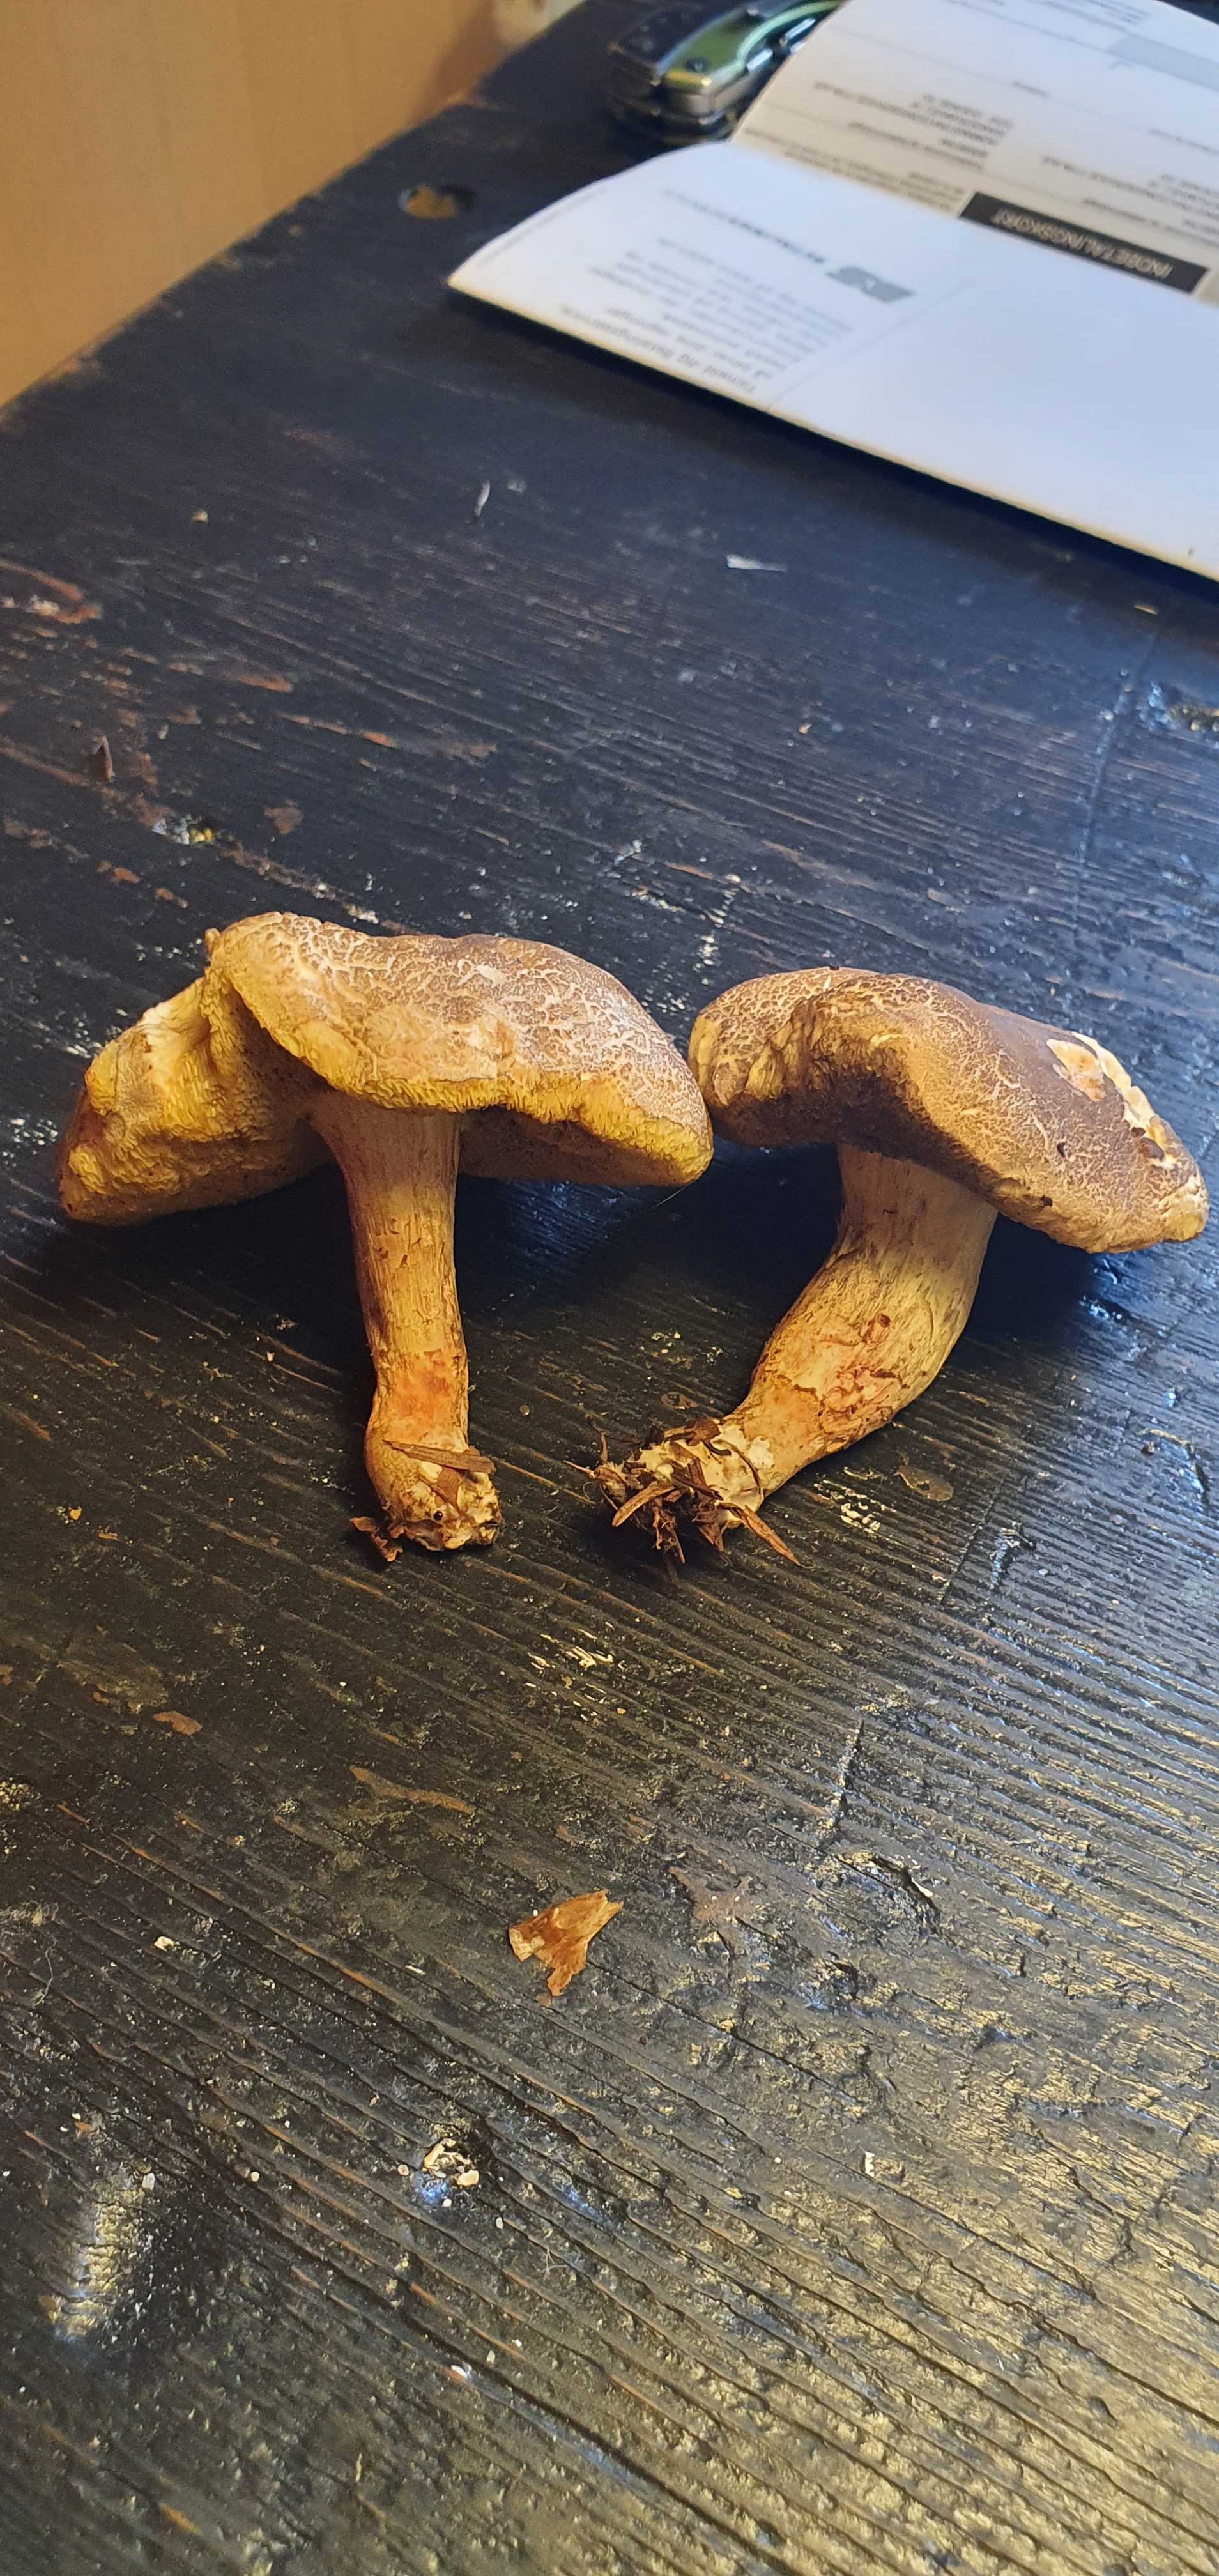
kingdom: Fungi
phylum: Basidiomycota
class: Agaricomycetes
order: Boletales
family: Boletaceae
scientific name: Boletaceae
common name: rørhatfamilien
